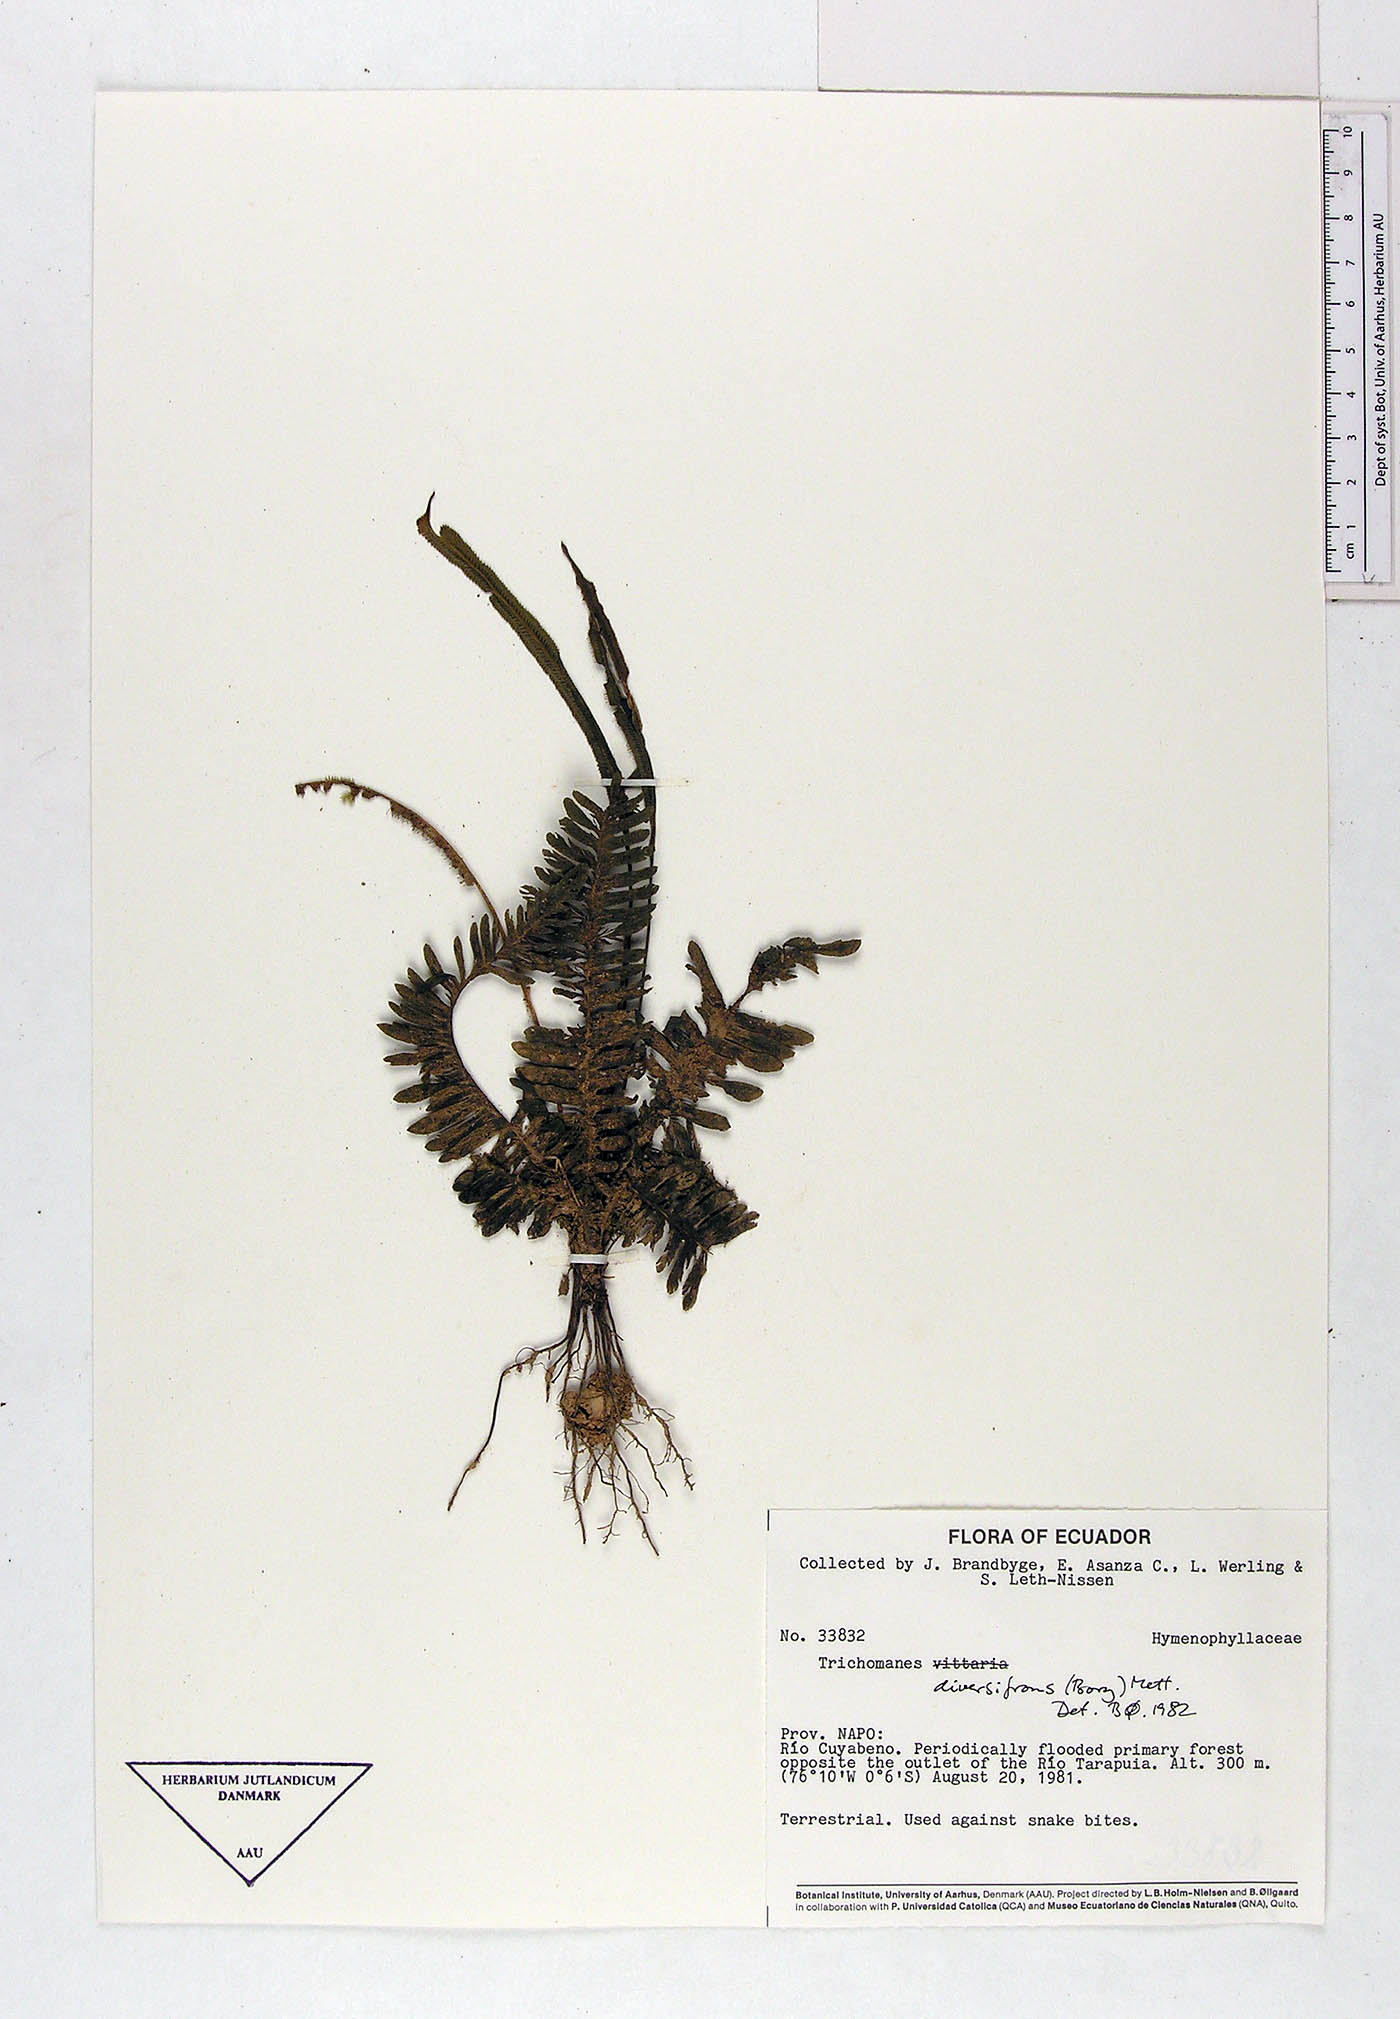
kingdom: Plantae
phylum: Tracheophyta
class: Polypodiopsida
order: Hymenophyllales
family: Hymenophyllaceae
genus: Trichomanes
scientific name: Trichomanes diversifrons
